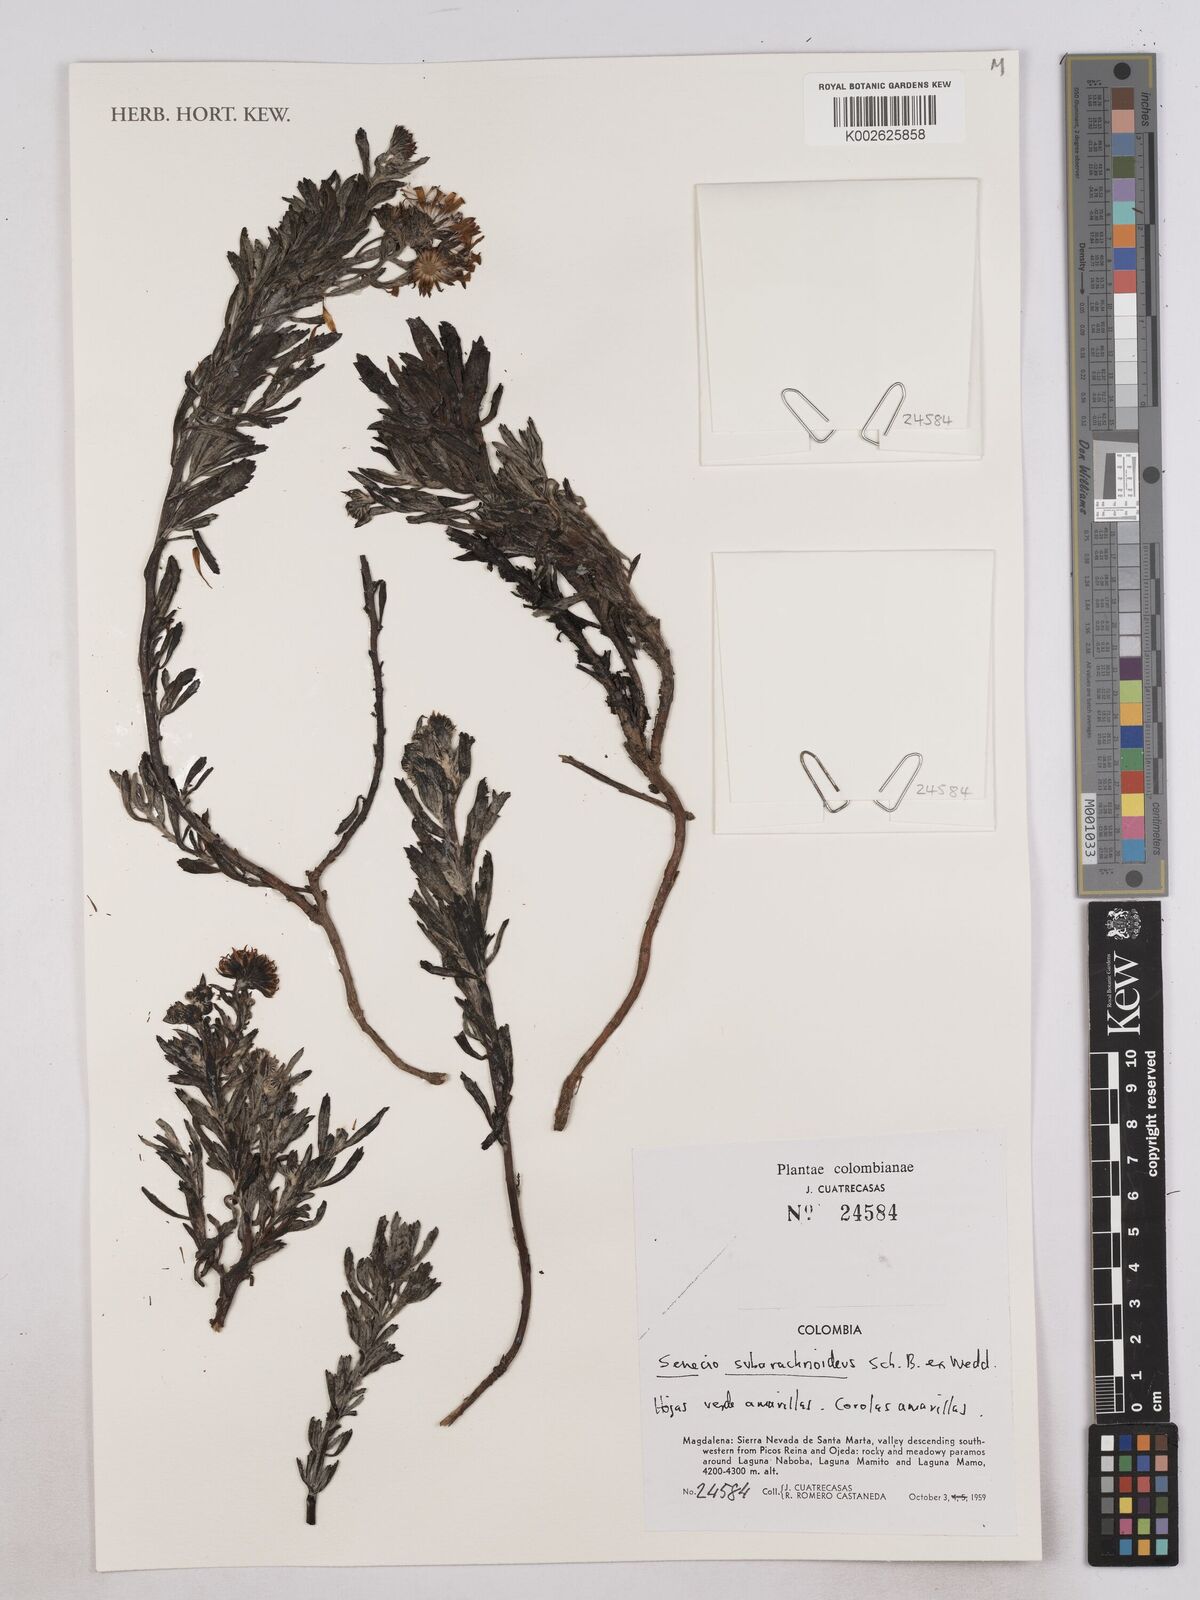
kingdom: Plantae
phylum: Tracheophyta
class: Magnoliopsida
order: Asterales
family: Asteraceae
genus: Monticalia
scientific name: Monticalia
